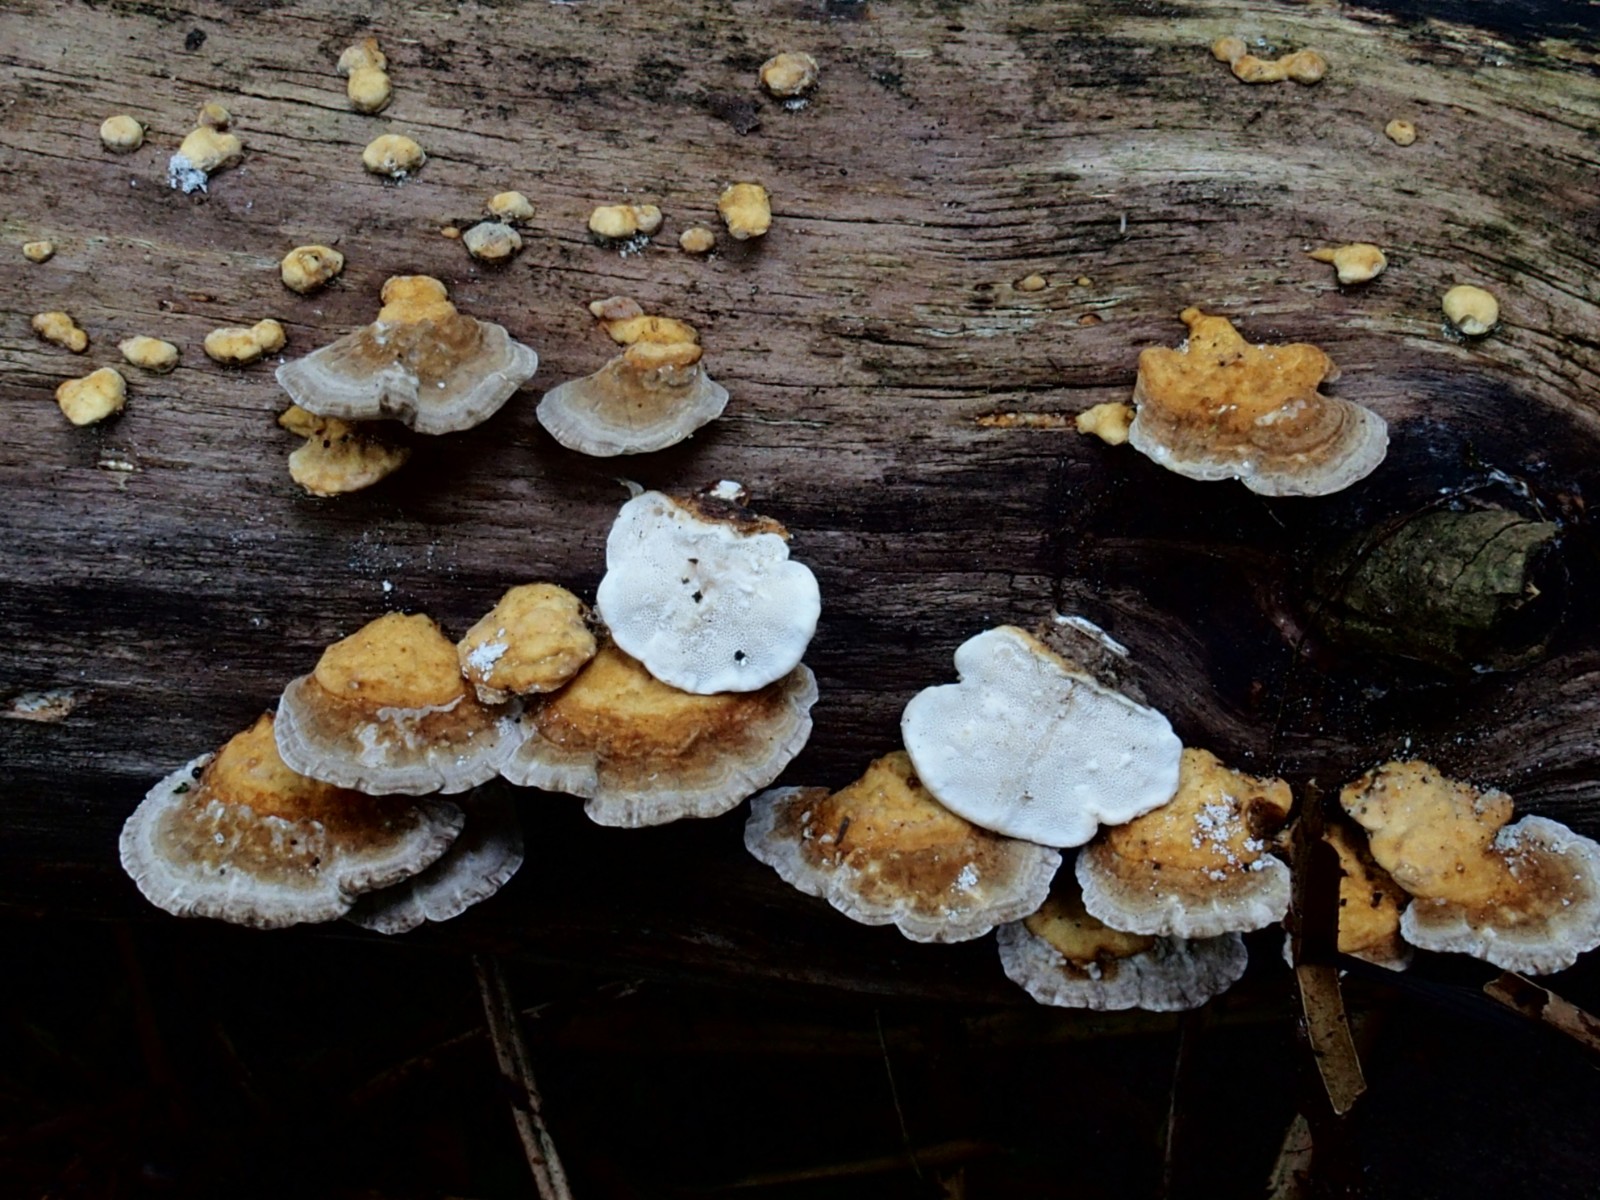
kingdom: Fungi
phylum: Basidiomycota
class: Agaricomycetes
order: Polyporales
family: Polyporaceae
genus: Trametes
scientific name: Trametes ochracea
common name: bæltet læderporesvamp
